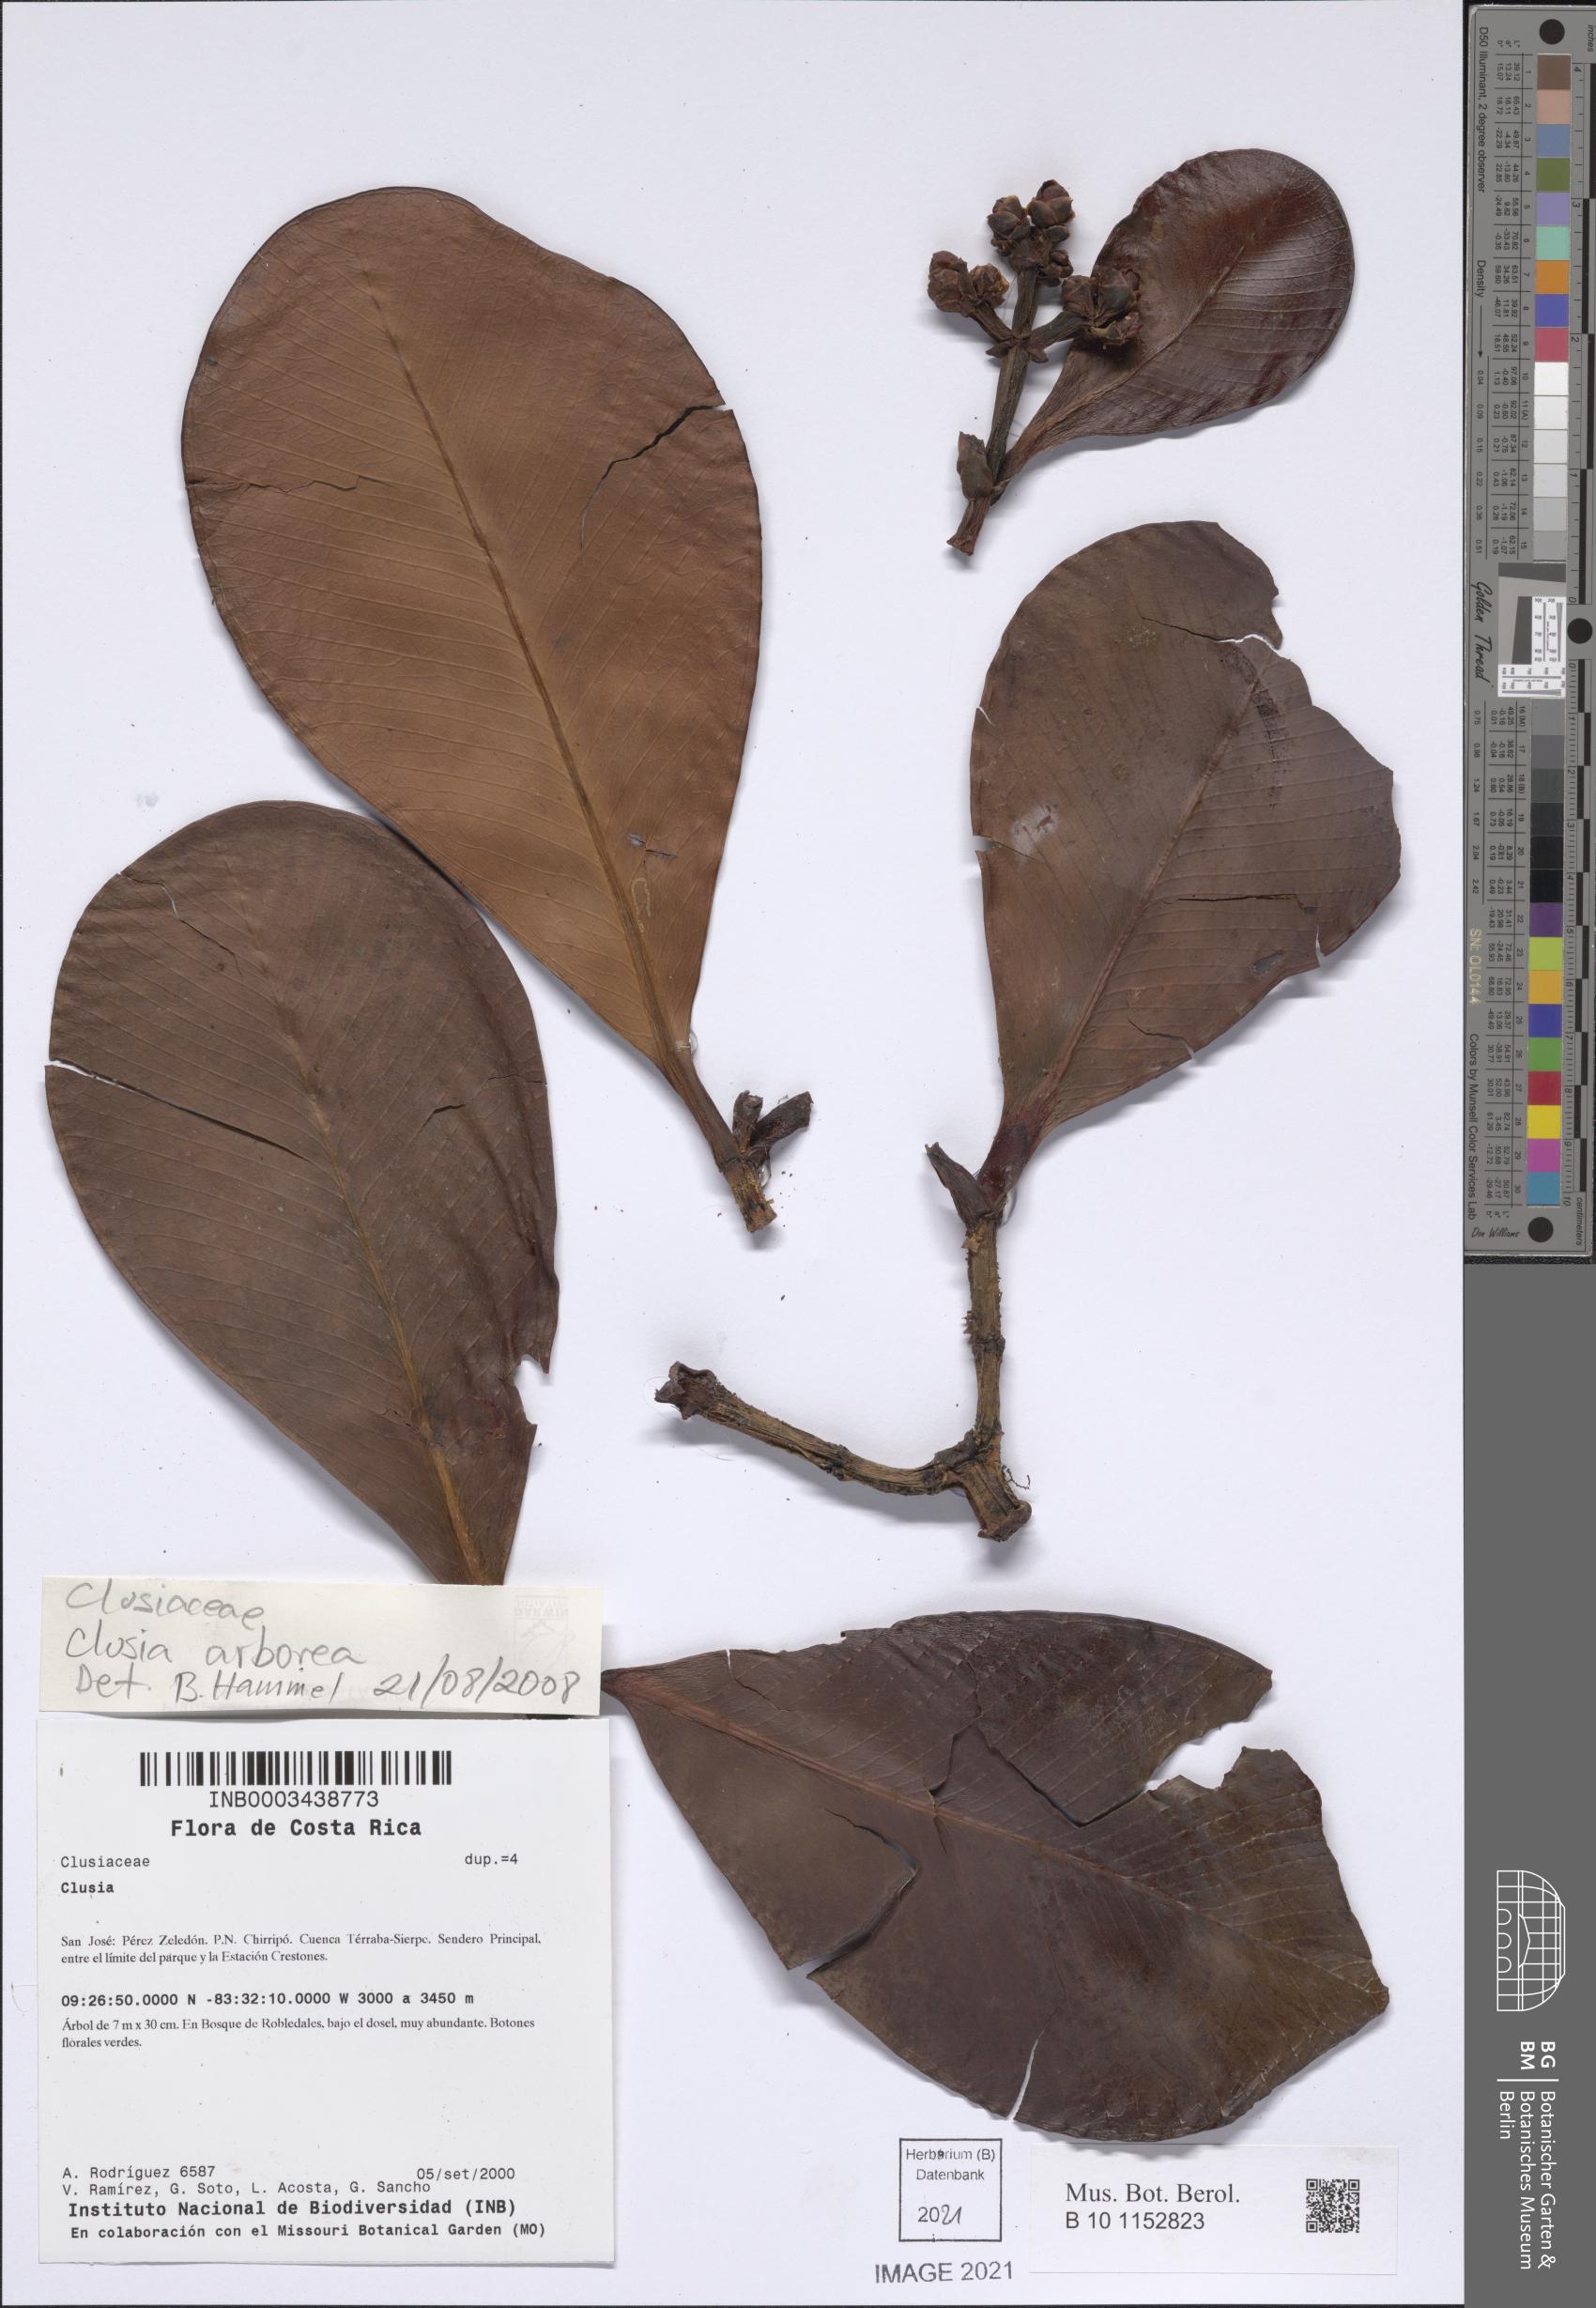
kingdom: Plantae
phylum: Tracheophyta
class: Magnoliopsida
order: Malpighiales
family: Clusiaceae
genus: Clusia
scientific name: Clusia
